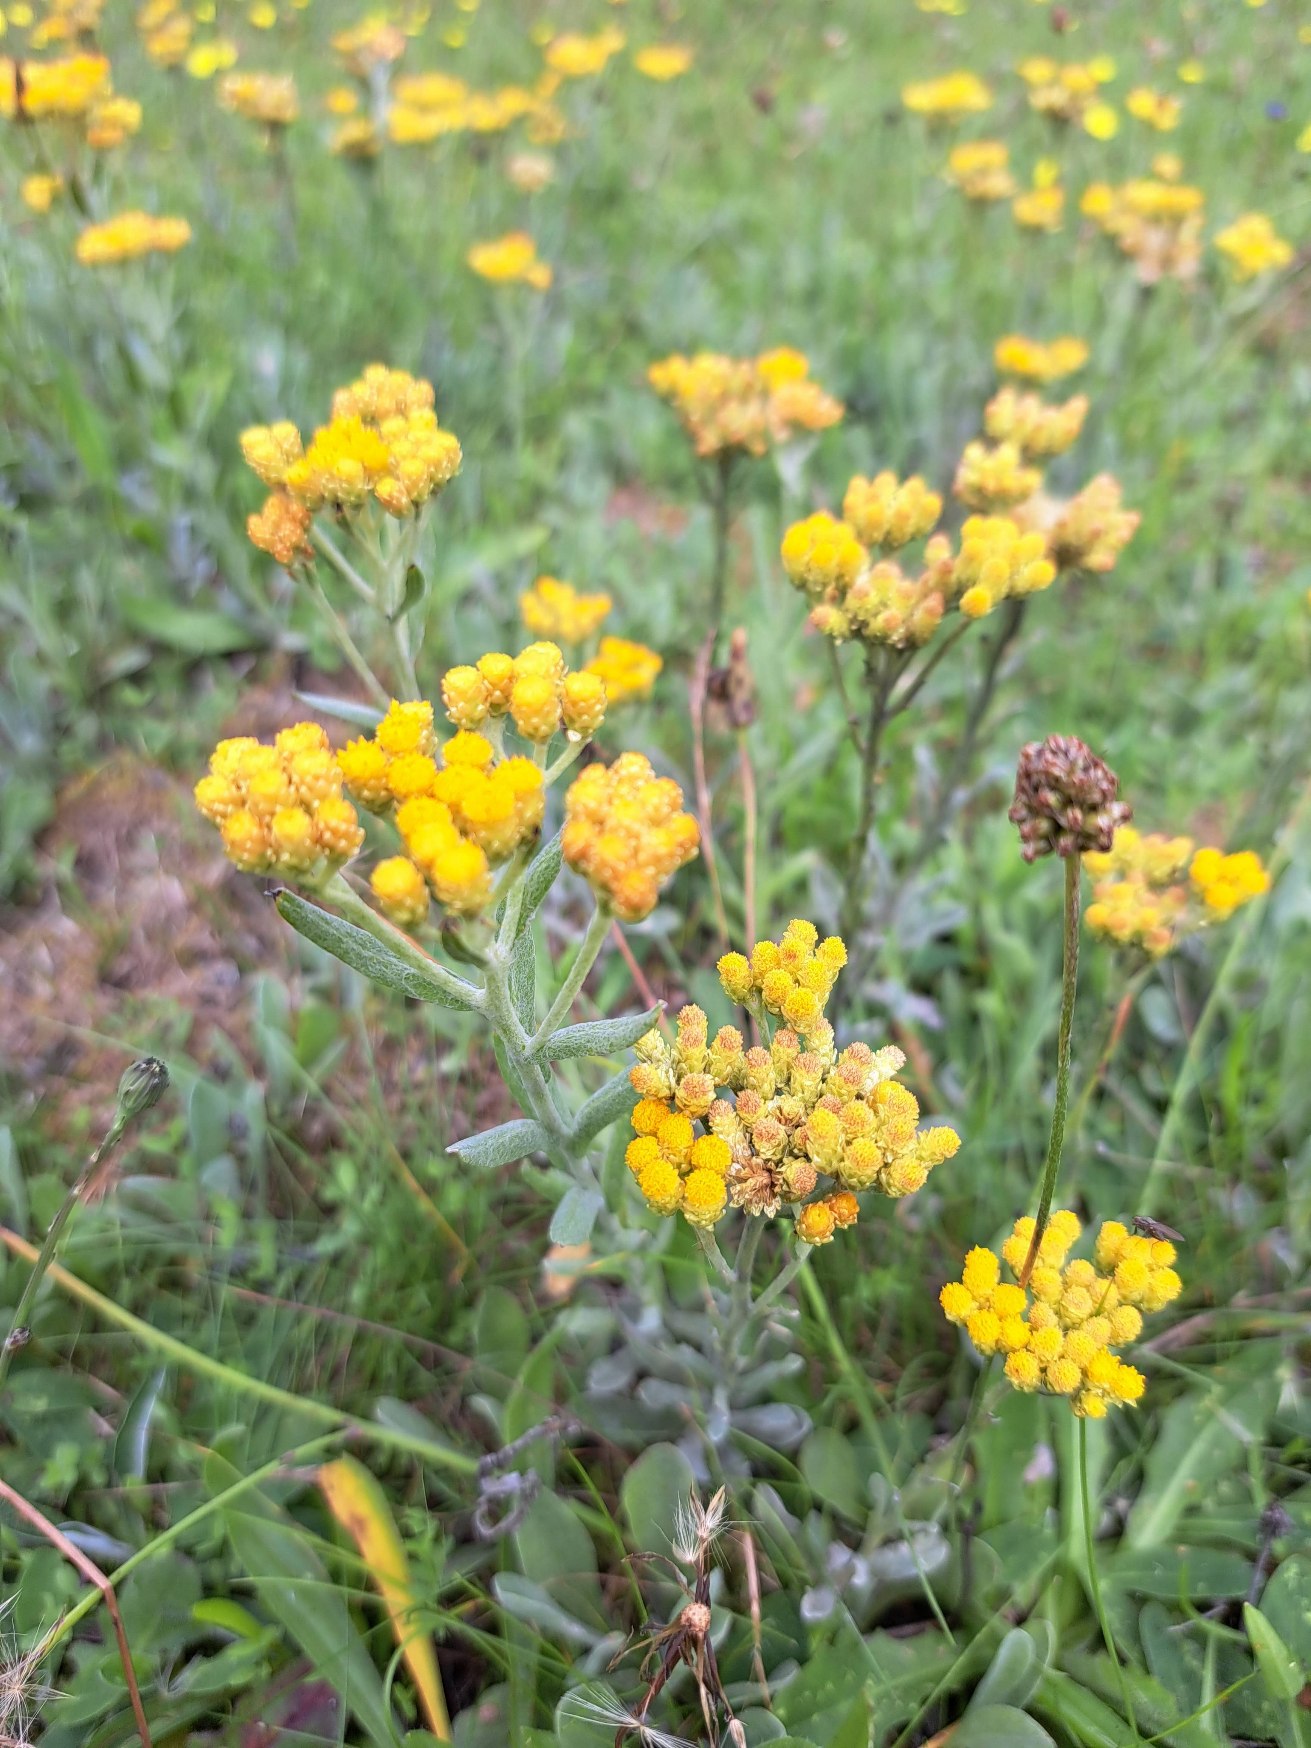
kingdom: Plantae
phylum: Tracheophyta
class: Magnoliopsida
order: Asterales
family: Asteraceae
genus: Helichrysum
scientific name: Helichrysum arenarium
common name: Gul evighedsblomst
